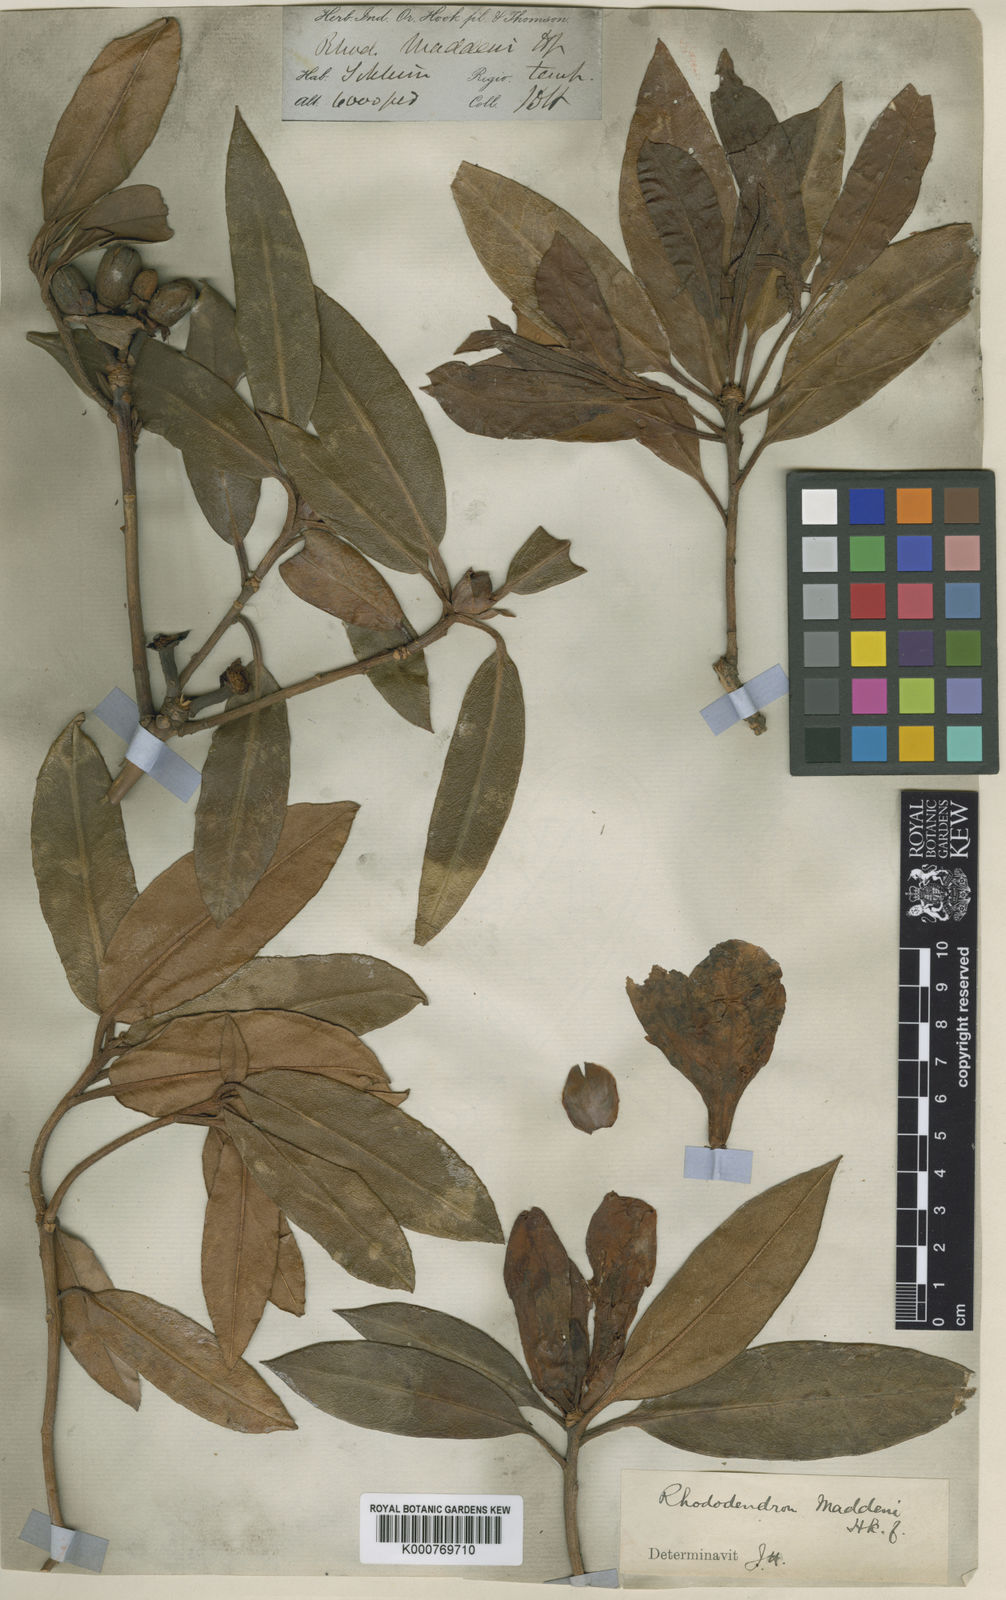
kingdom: Plantae
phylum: Tracheophyta
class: Magnoliopsida
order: Ericales
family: Ericaceae
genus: Rhododendron
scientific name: Rhododendron maddenii
